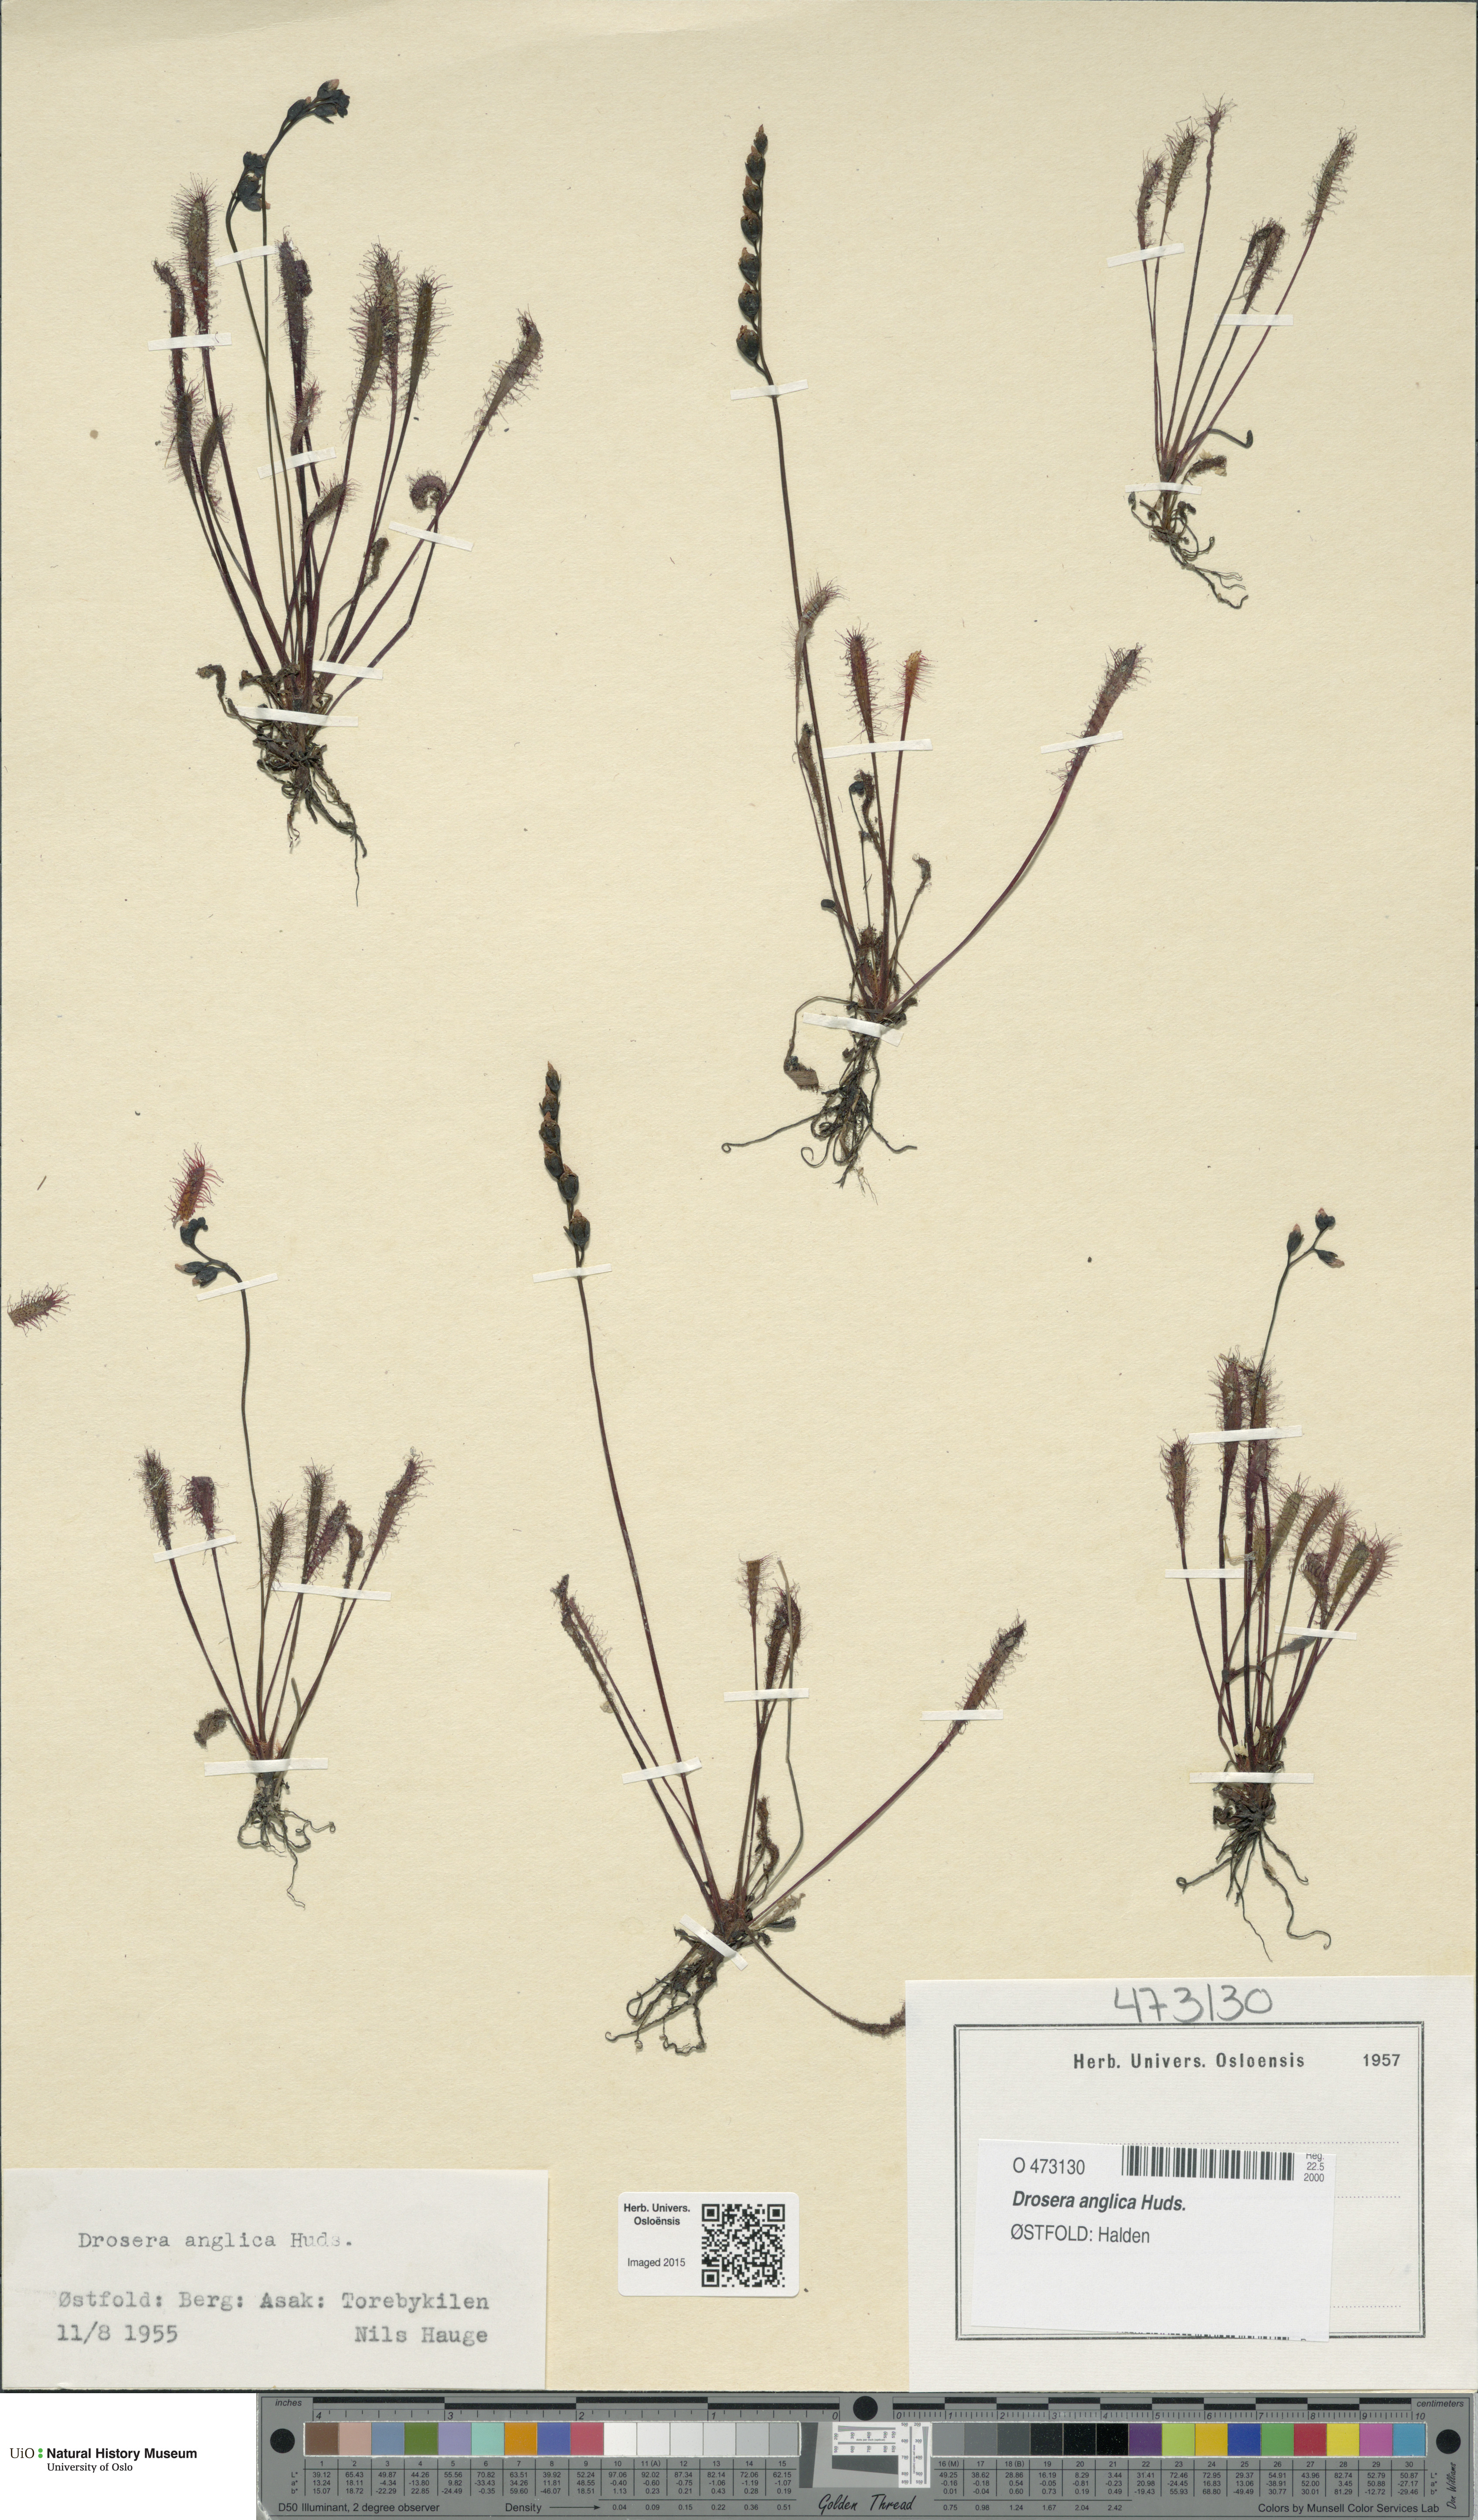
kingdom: Plantae
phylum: Tracheophyta
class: Magnoliopsida
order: Caryophyllales
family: Droseraceae
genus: Drosera
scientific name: Drosera anglica
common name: Great sundew
